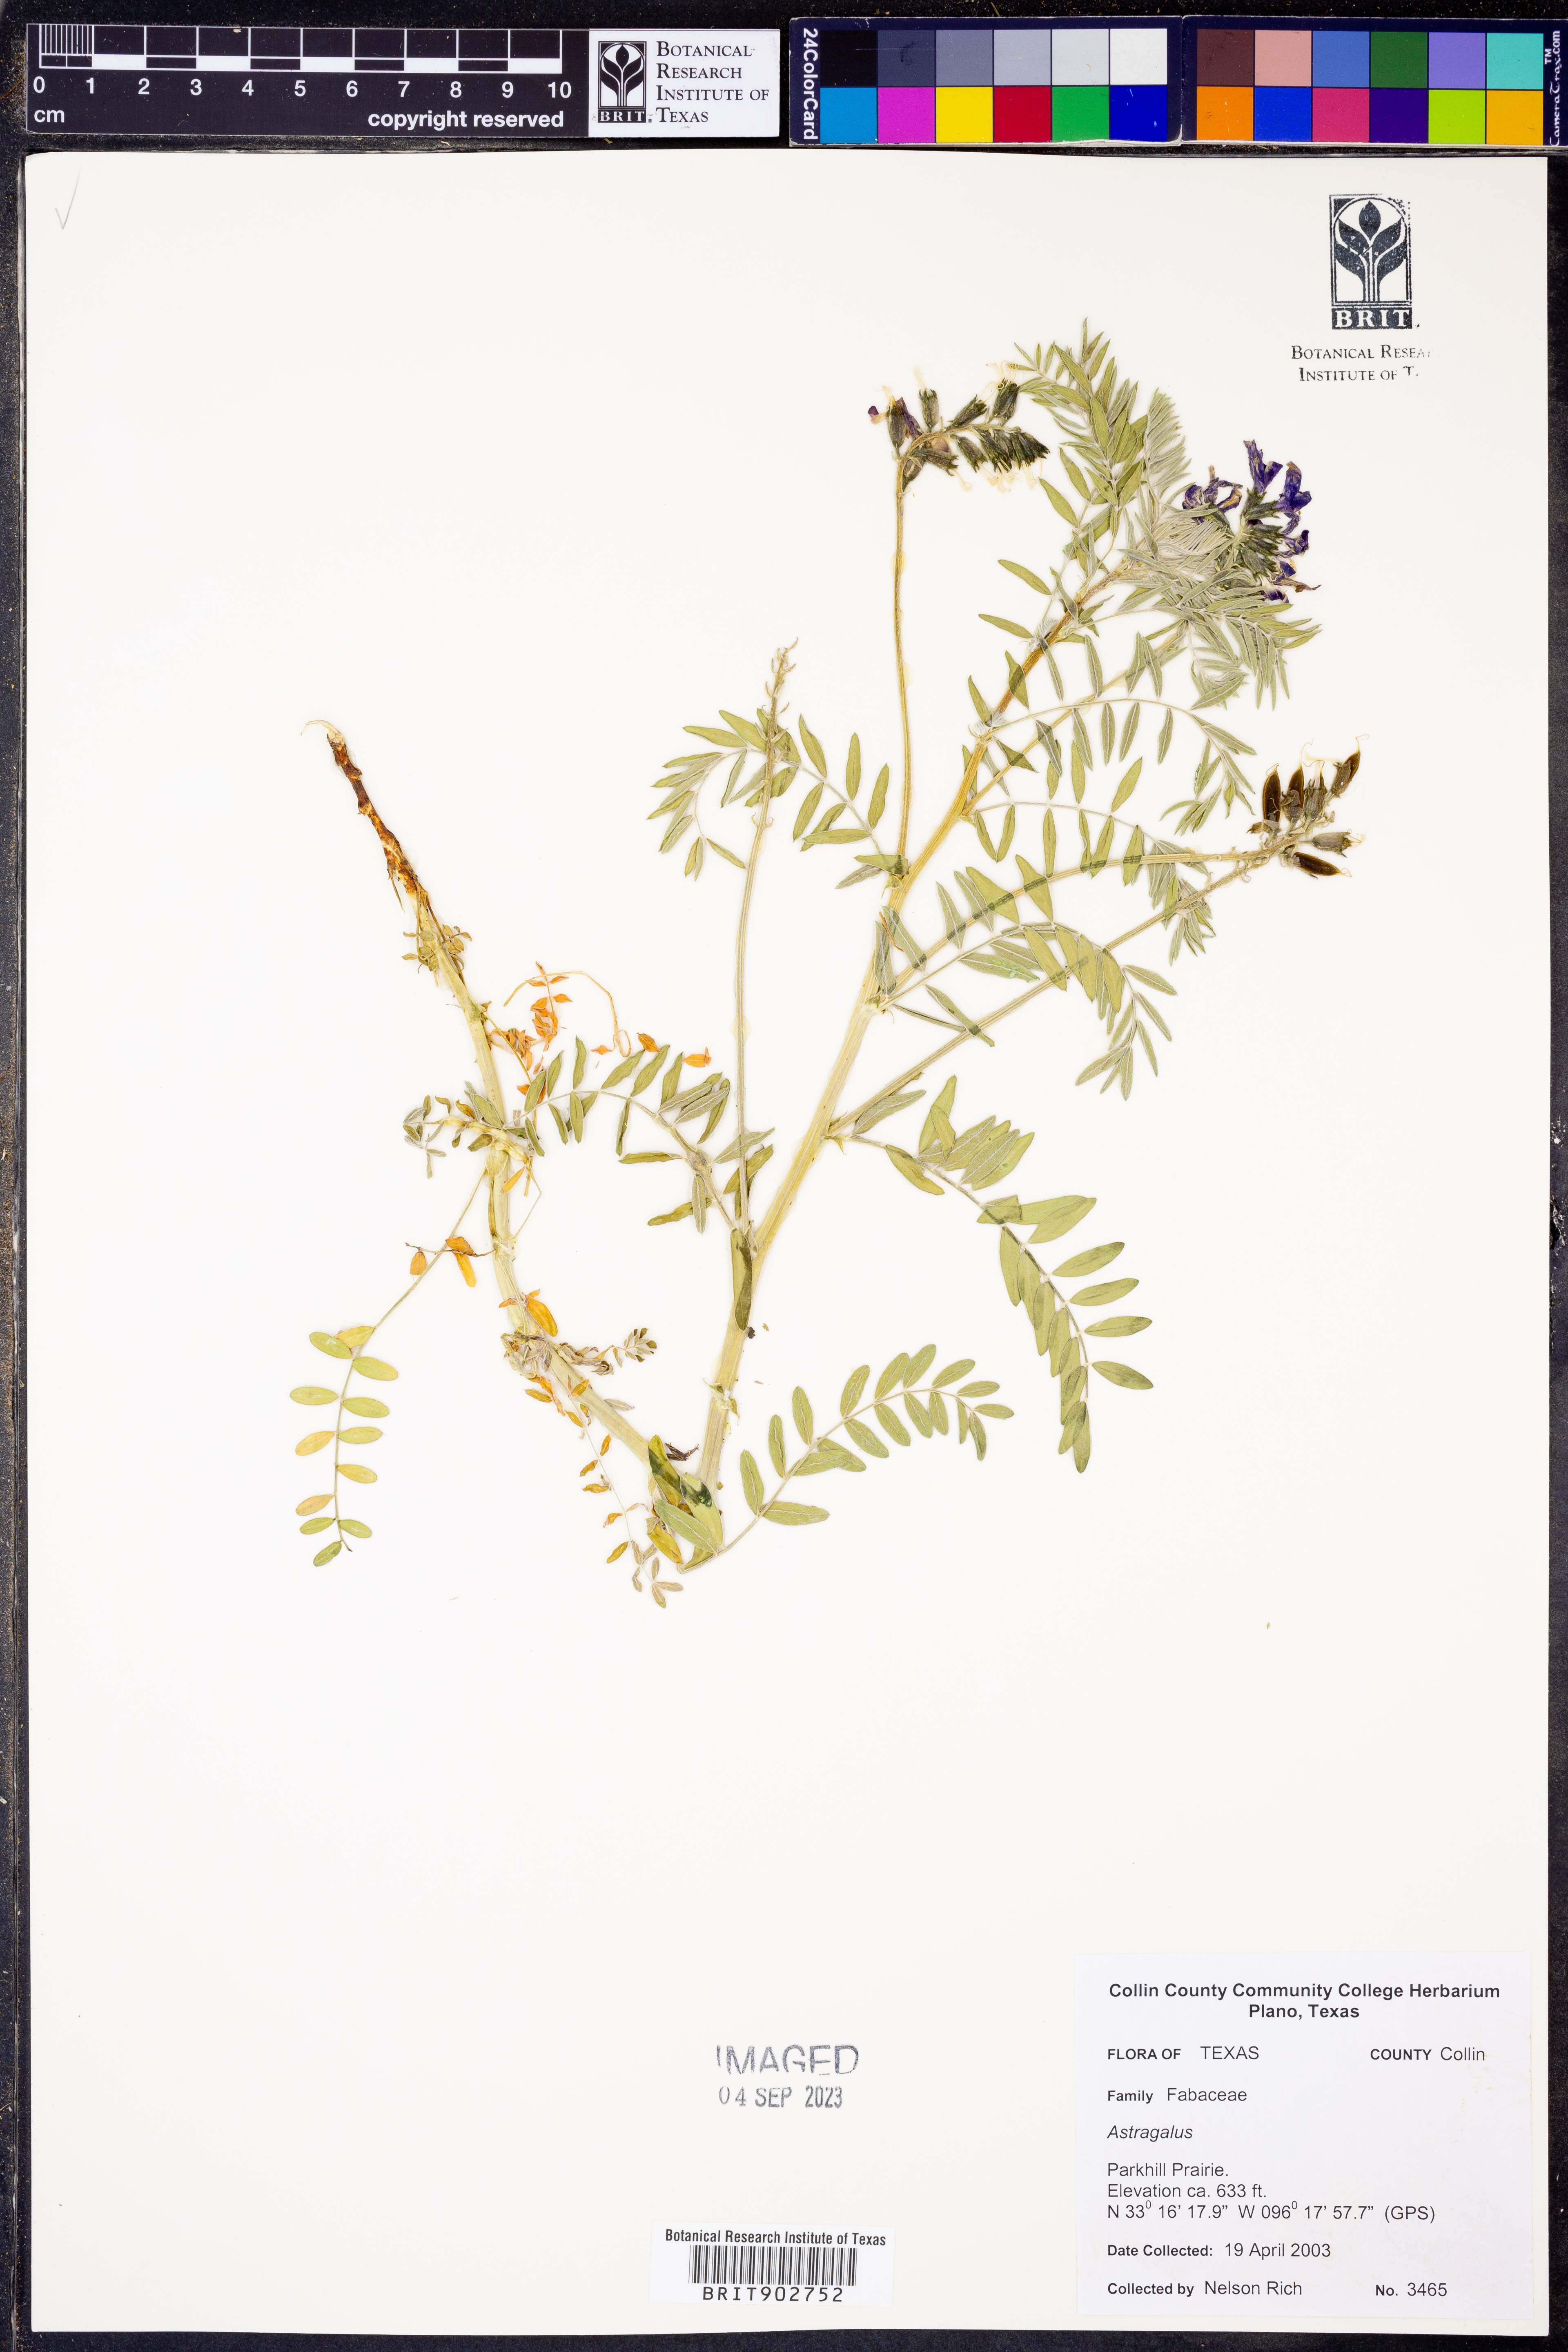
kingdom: Plantae
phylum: Tracheophyta
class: Magnoliopsida
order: Fabales
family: Fabaceae
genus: Astragalus
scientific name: Astragalus
